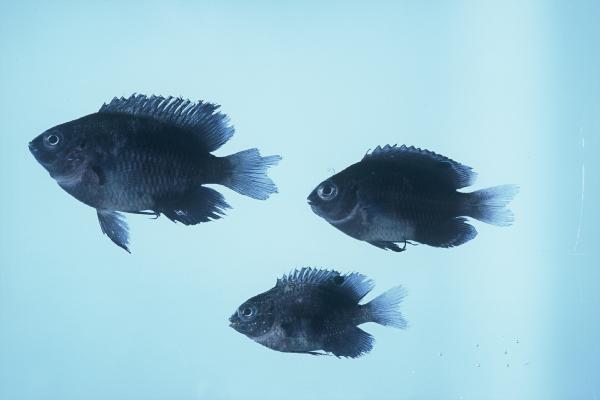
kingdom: Animalia
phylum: Chordata
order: Perciformes
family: Pomacentridae
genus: Pomacentrus
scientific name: Pomacentrus agassizii
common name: Creole damsel
